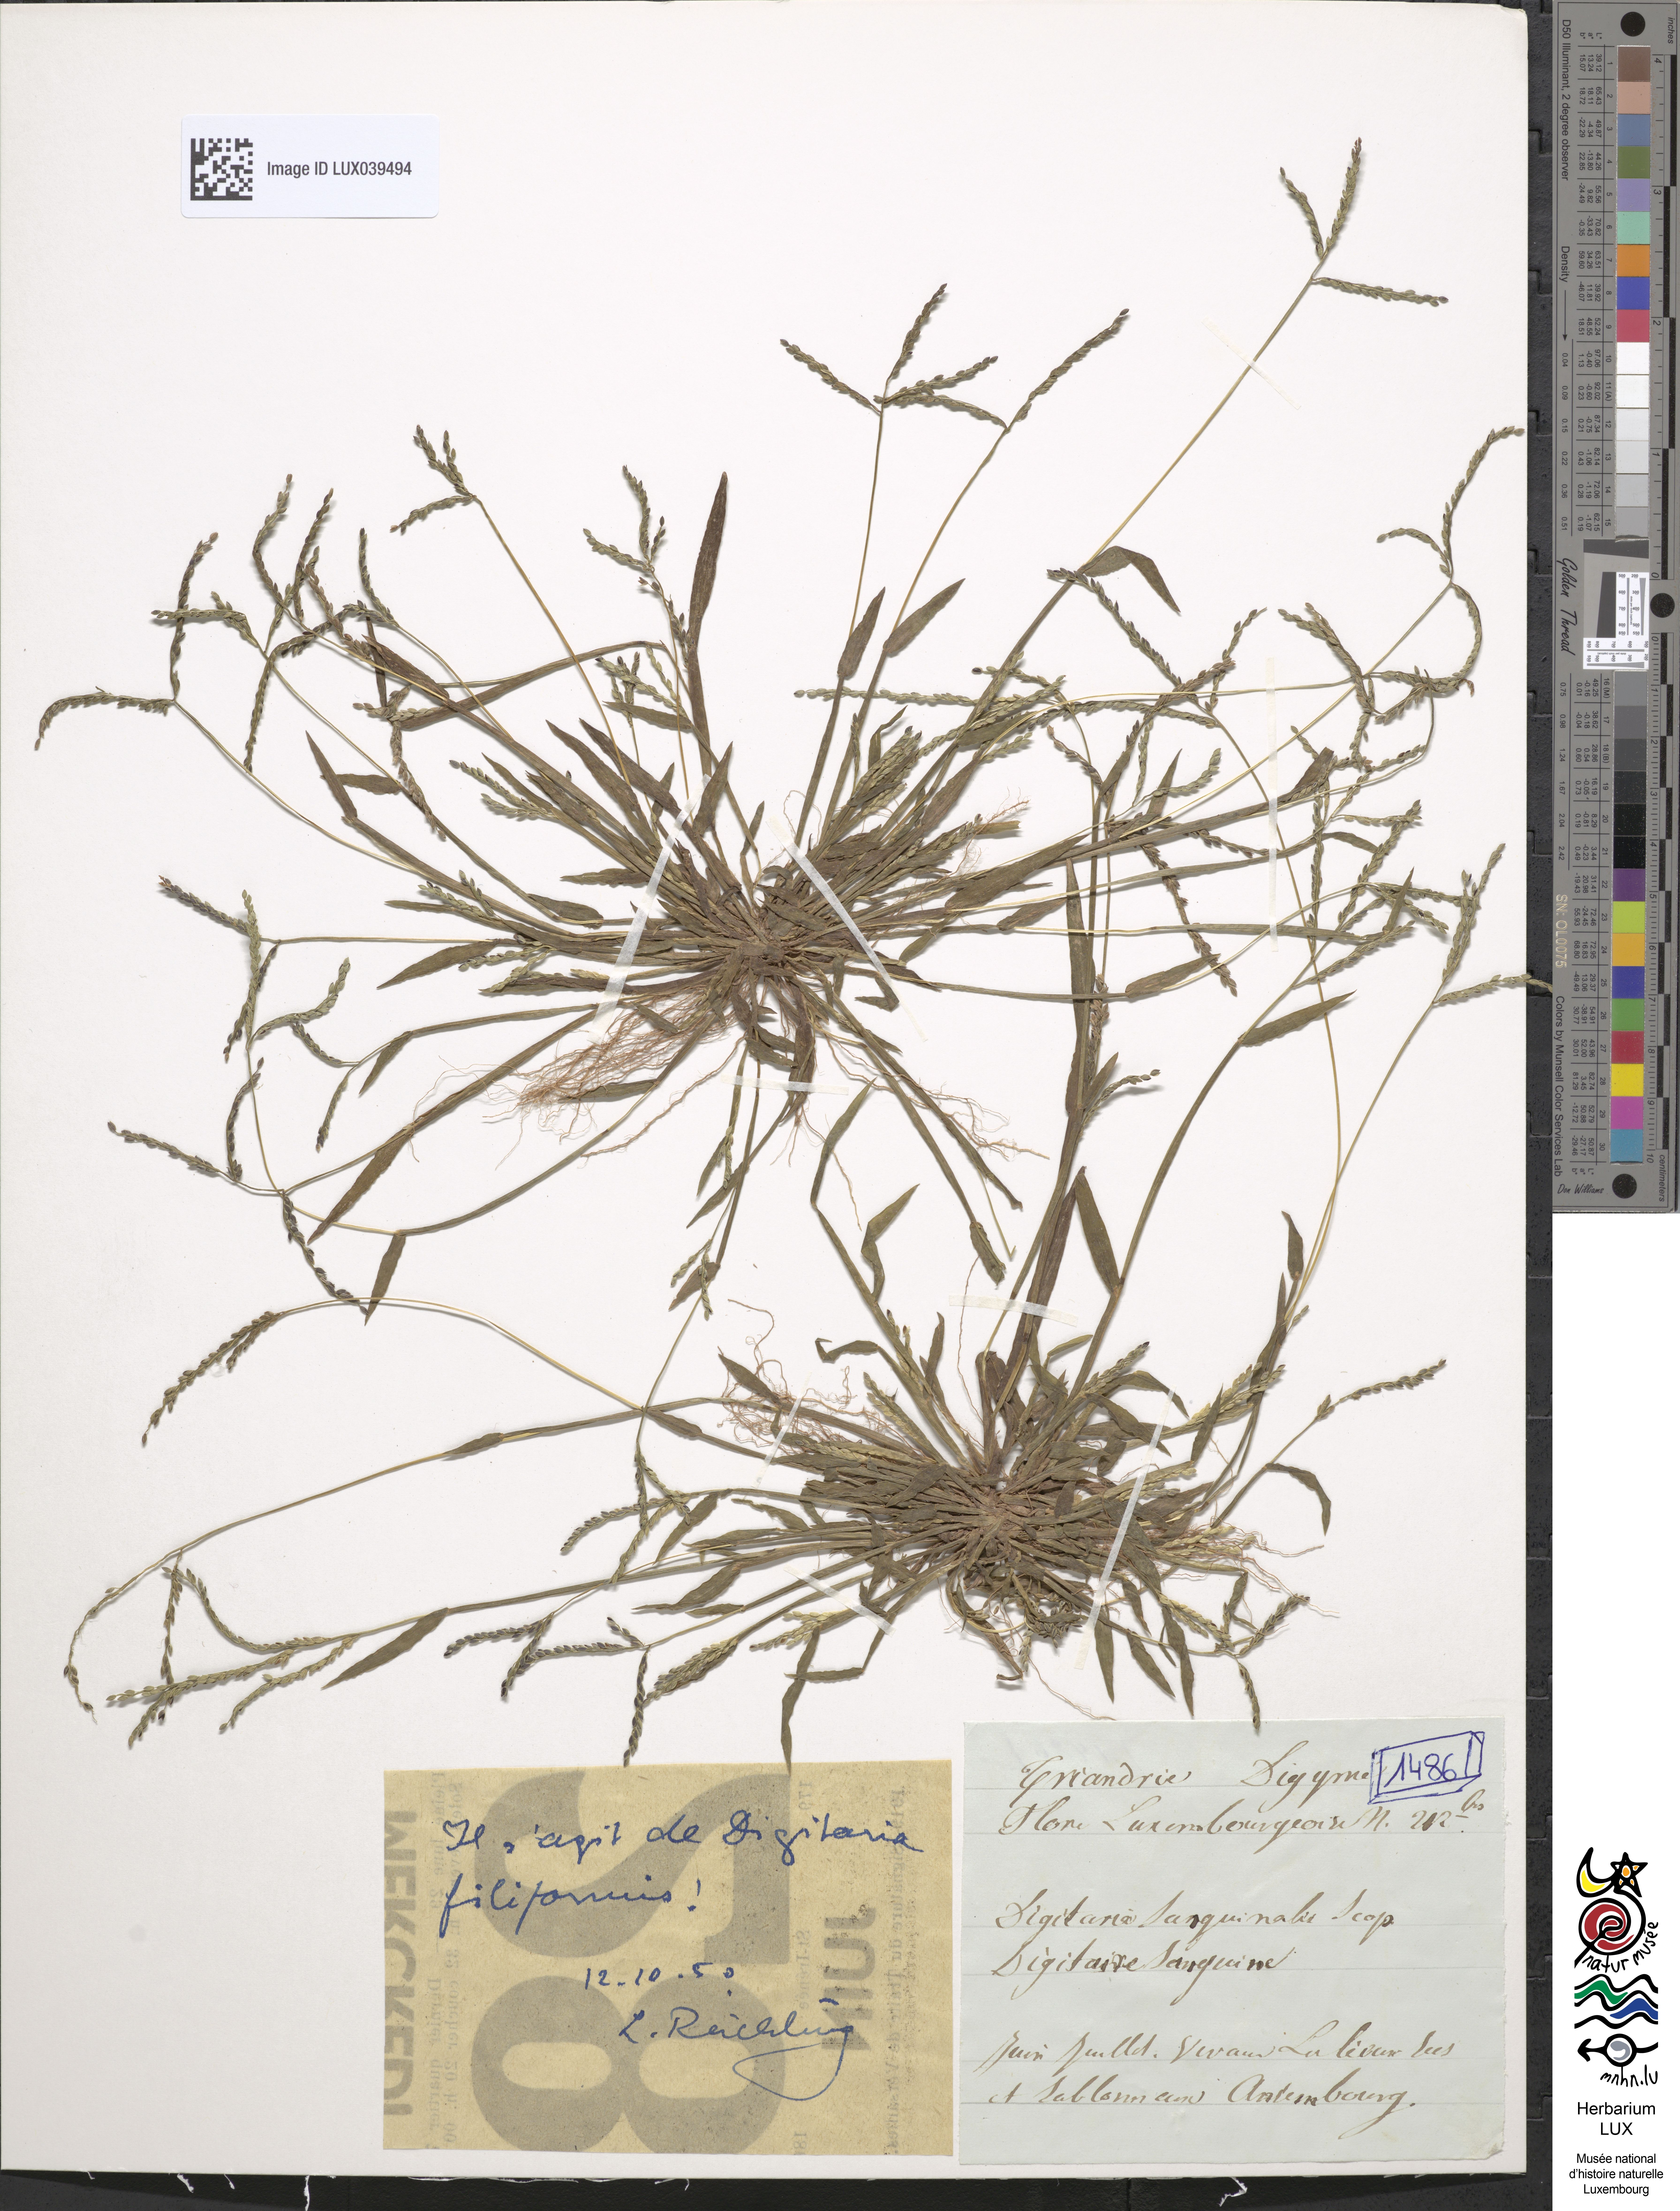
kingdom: Plantae
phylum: Tracheophyta
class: Liliopsida
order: Poales
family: Poaceae
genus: Digitaria
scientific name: Digitaria sanguinalis
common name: Hairy crabgrass
